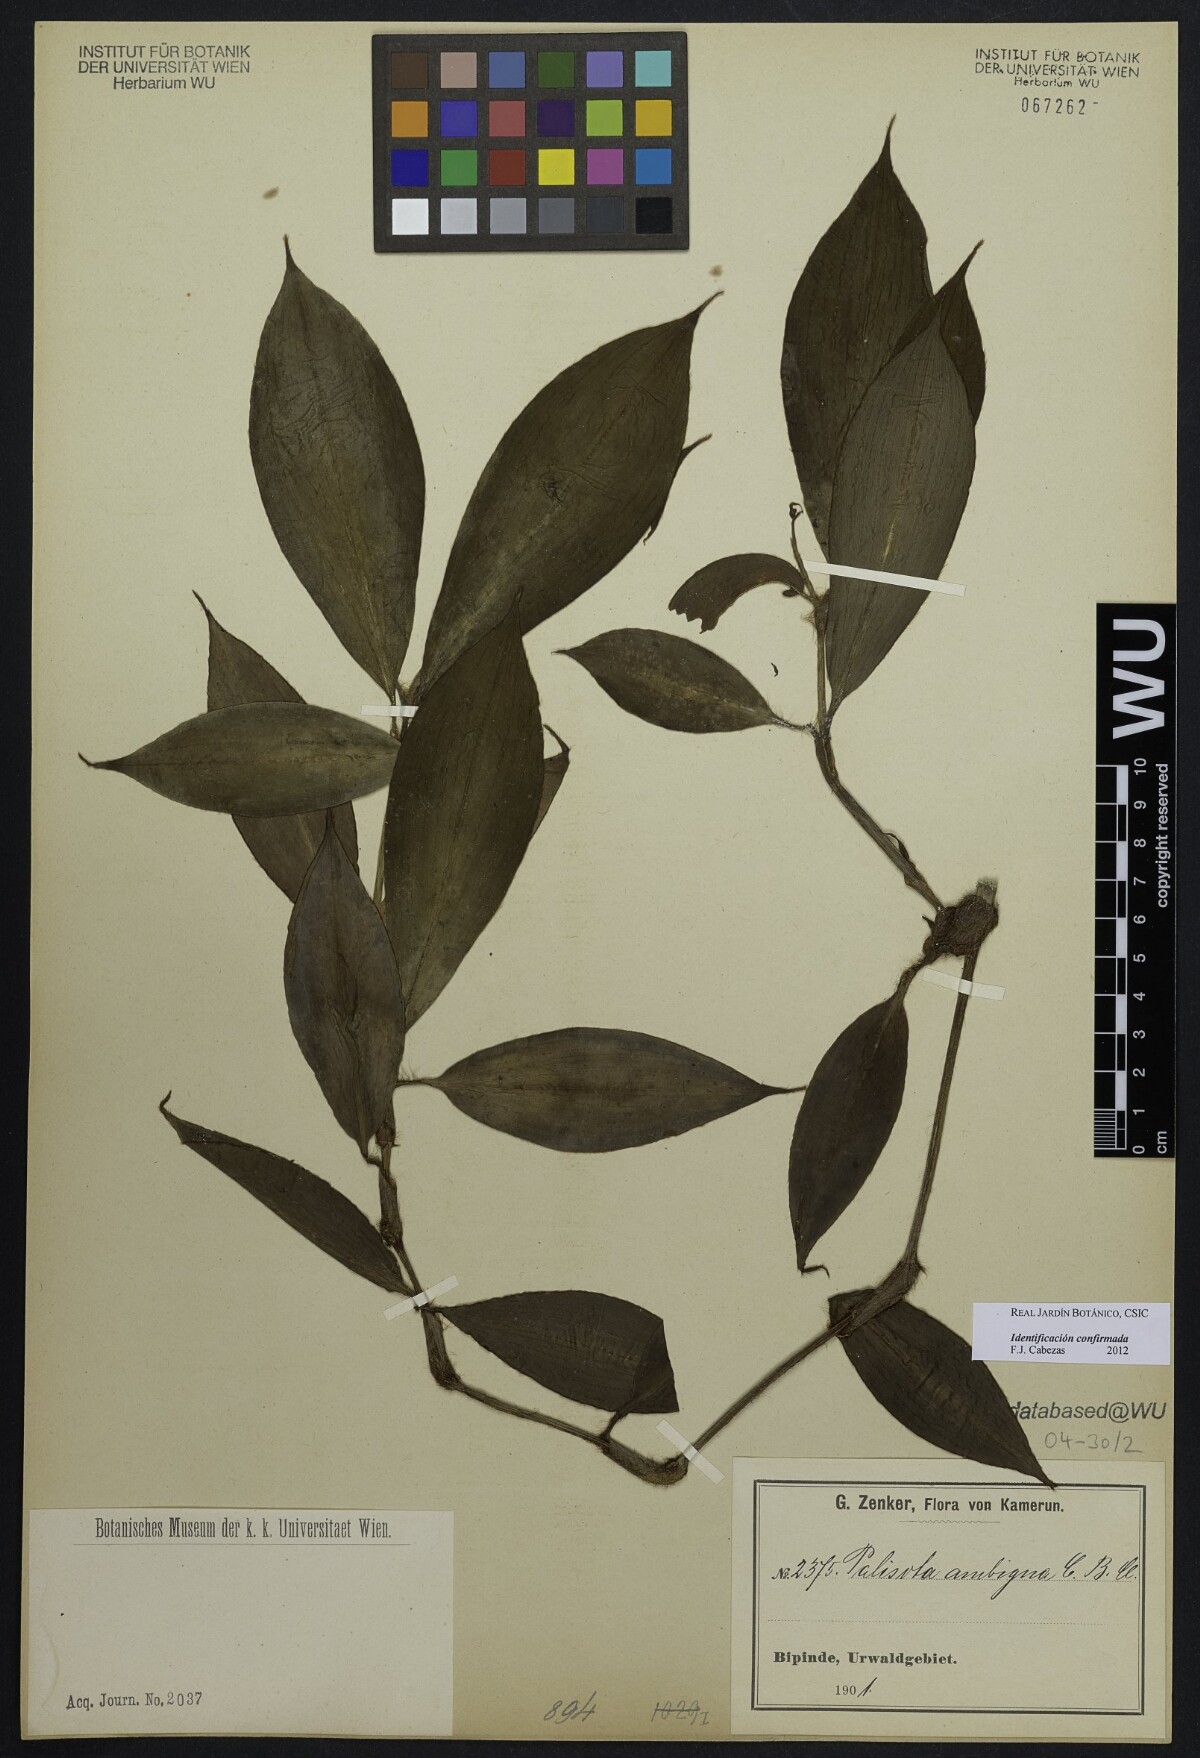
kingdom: Plantae
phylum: Tracheophyta
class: Liliopsida
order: Commelinales
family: Commelinaceae
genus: Palisota
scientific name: Palisota ambigua
